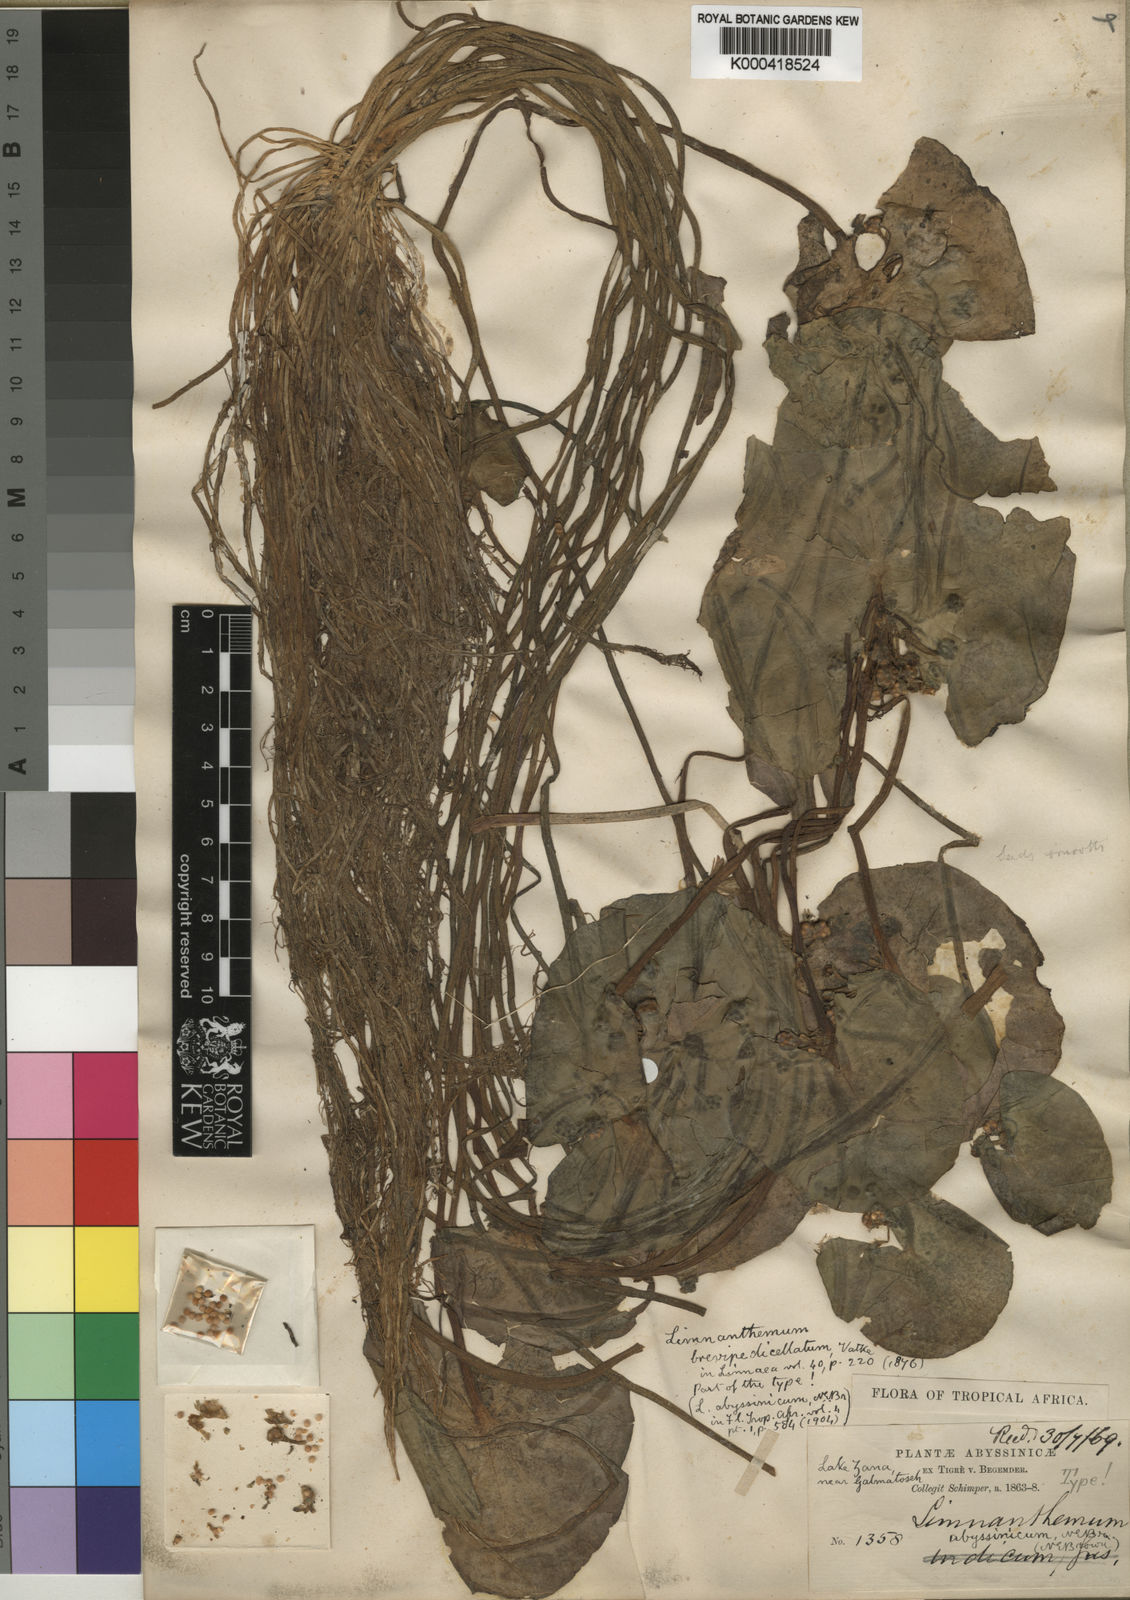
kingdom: Plantae
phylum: Tracheophyta
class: Magnoliopsida
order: Asterales
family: Menyanthaceae
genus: Nymphoides
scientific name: Nymphoides indica
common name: Water-snowflake
